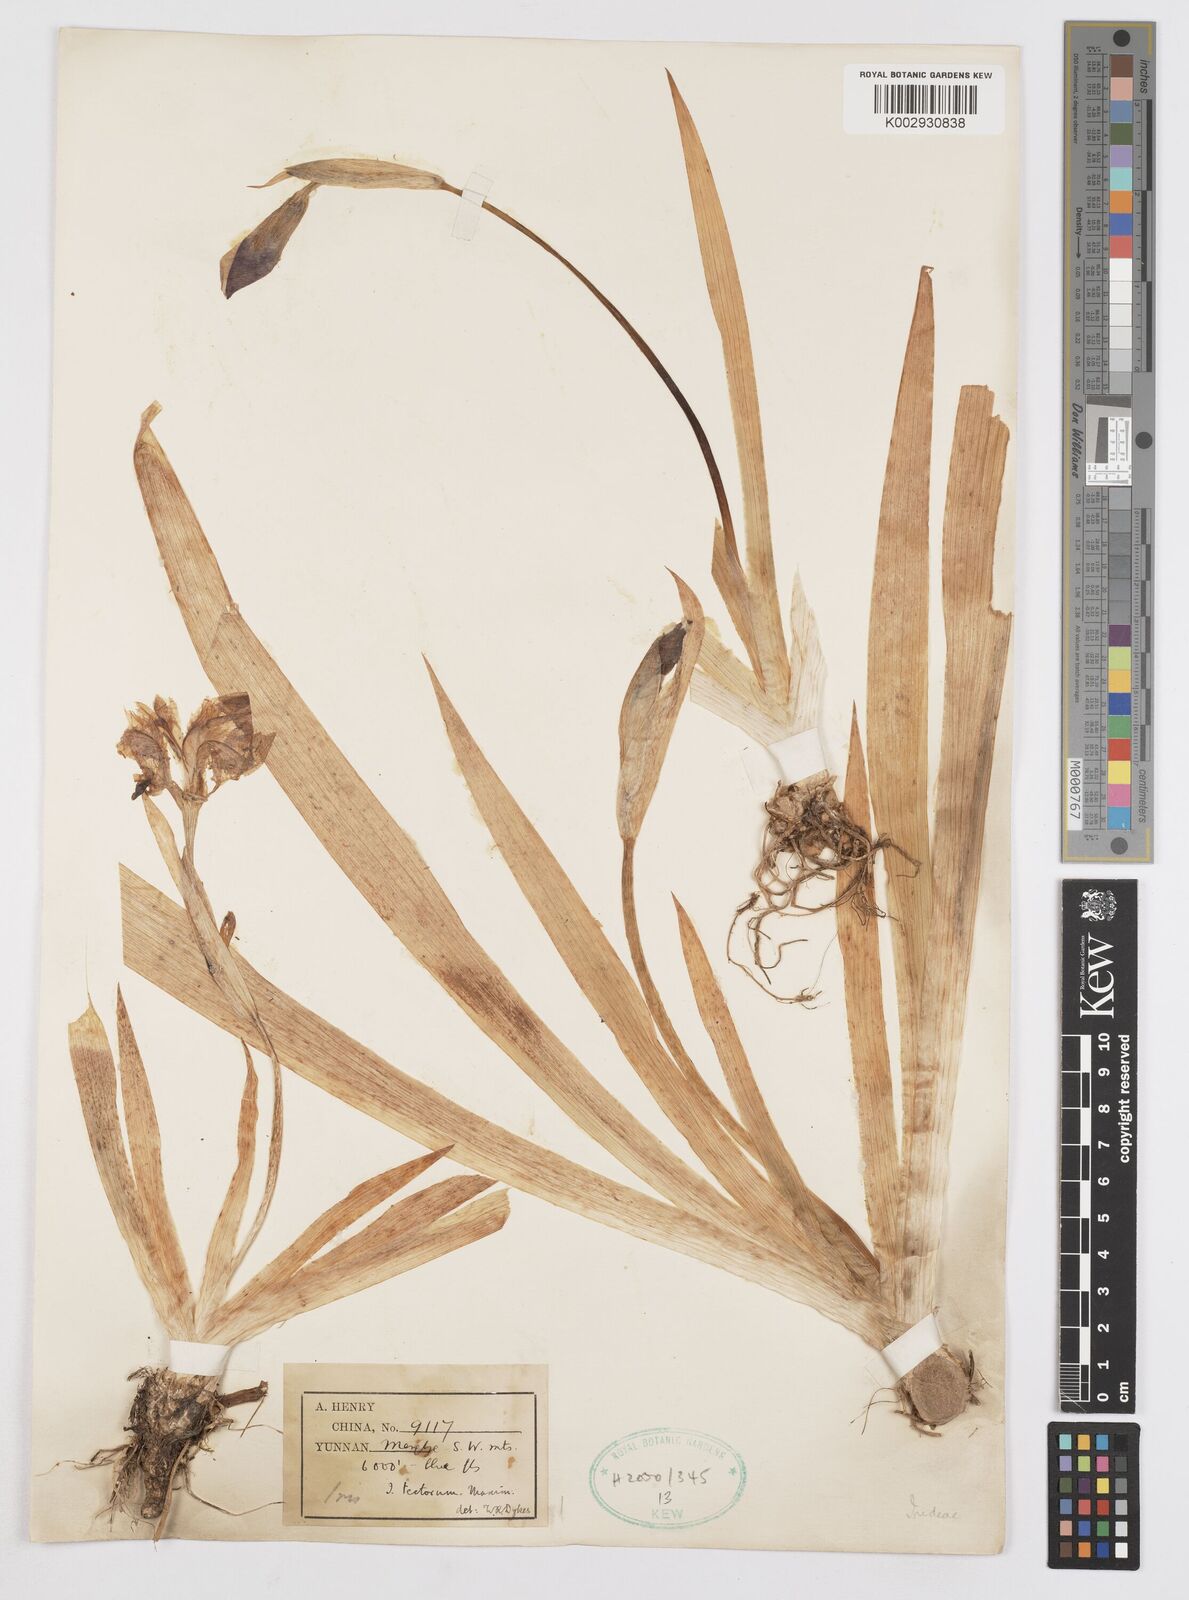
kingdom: Plantae
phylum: Tracheophyta
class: Liliopsida
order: Asparagales
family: Iridaceae
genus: Iris
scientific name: Iris tectorum
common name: Wall iris
